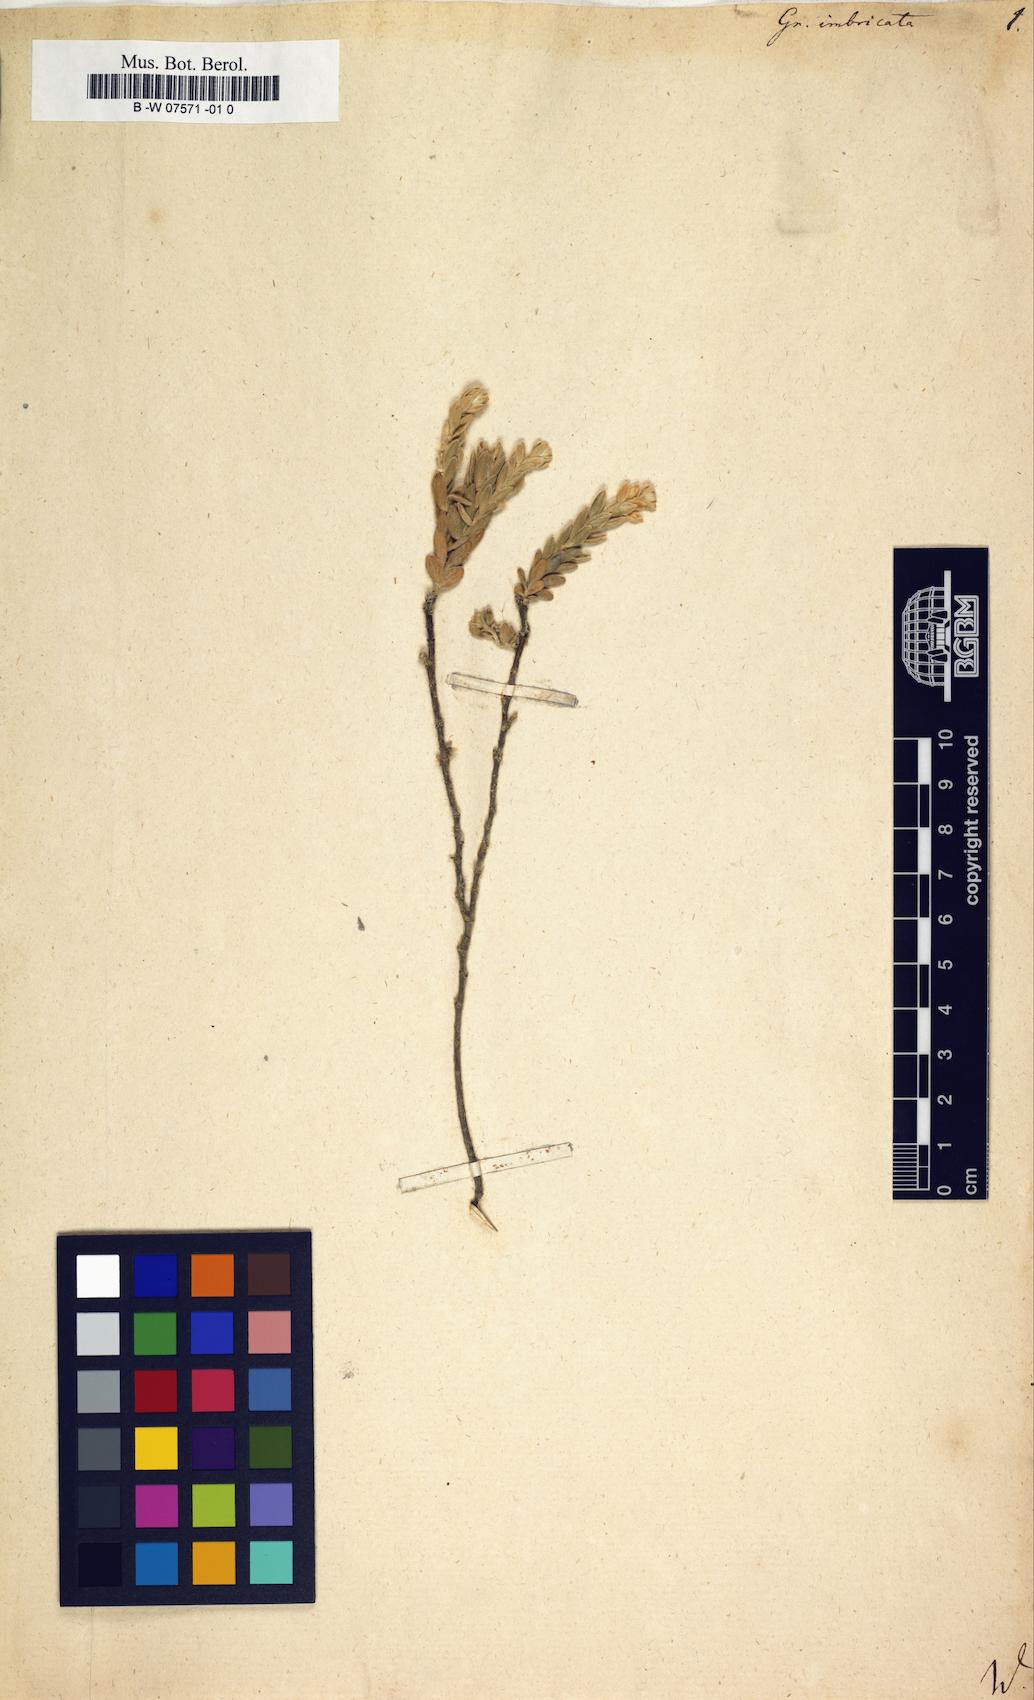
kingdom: Plantae
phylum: Tracheophyta
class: Magnoliopsida
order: Malvales
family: Thymelaeaceae
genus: Gnidia
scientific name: Gnidia imbricata
